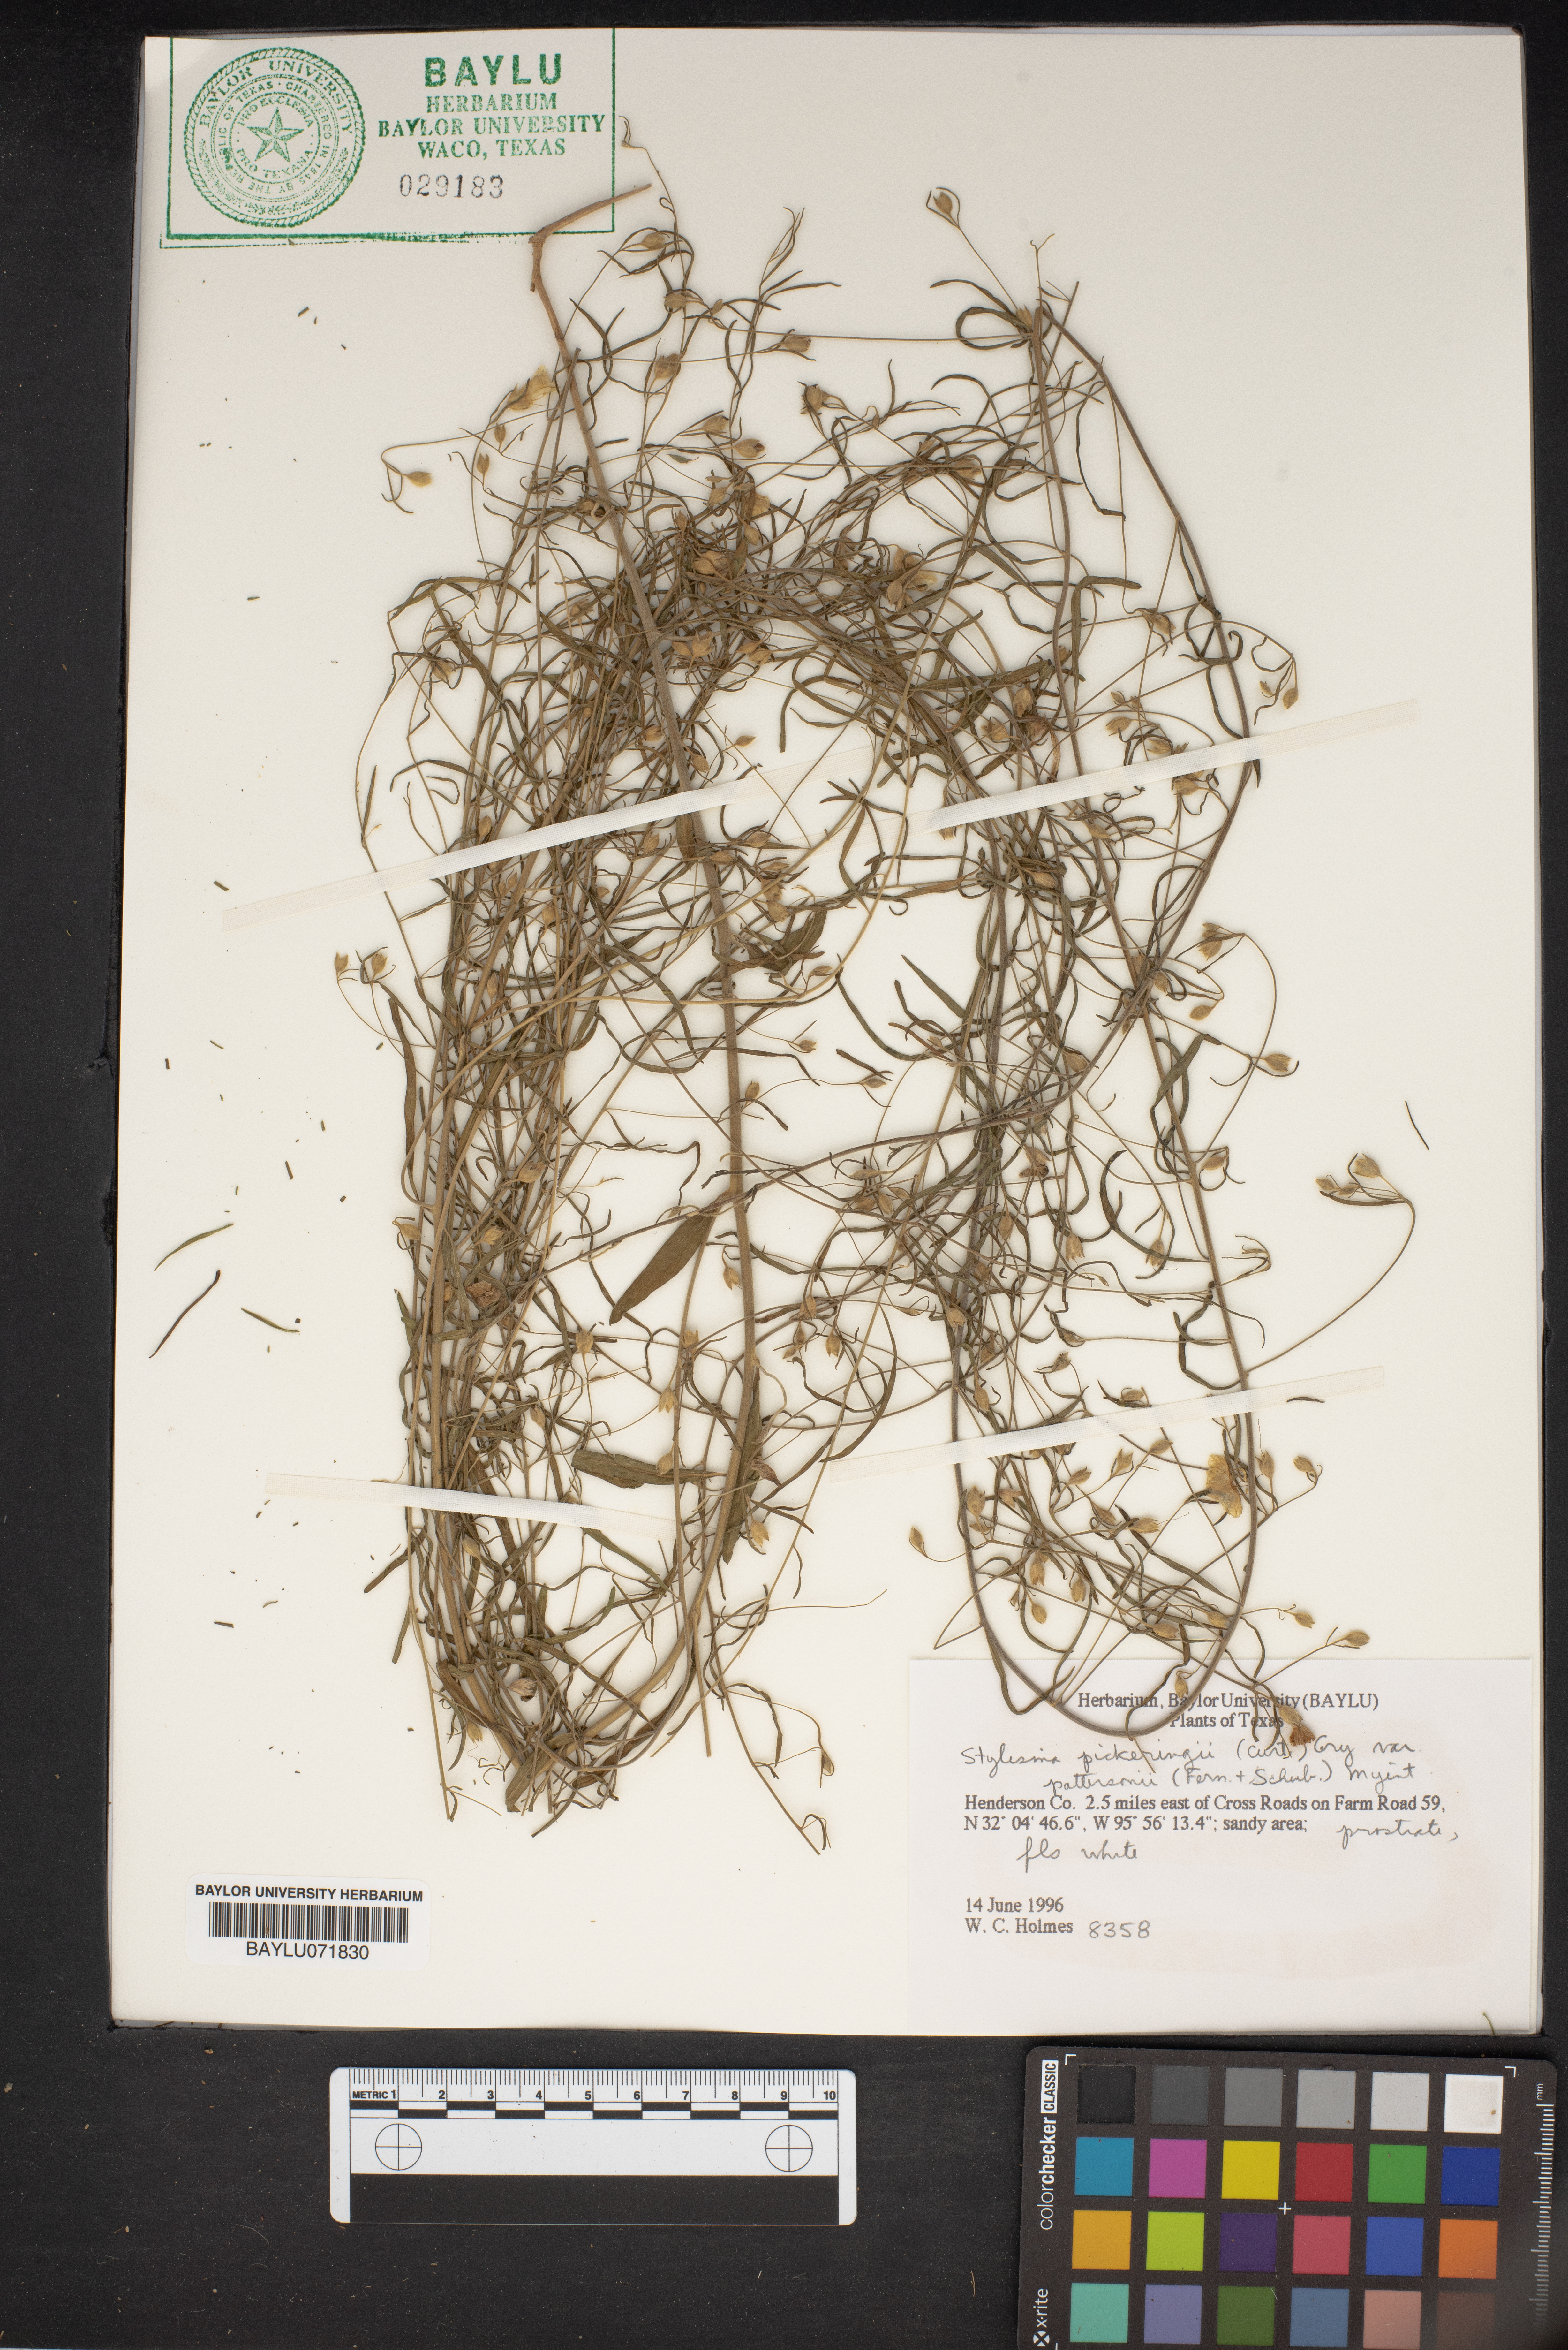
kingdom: Plantae
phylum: Tracheophyta
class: Magnoliopsida
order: Solanales
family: Convolvulaceae
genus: Stylisma
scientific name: Stylisma pickeringii
